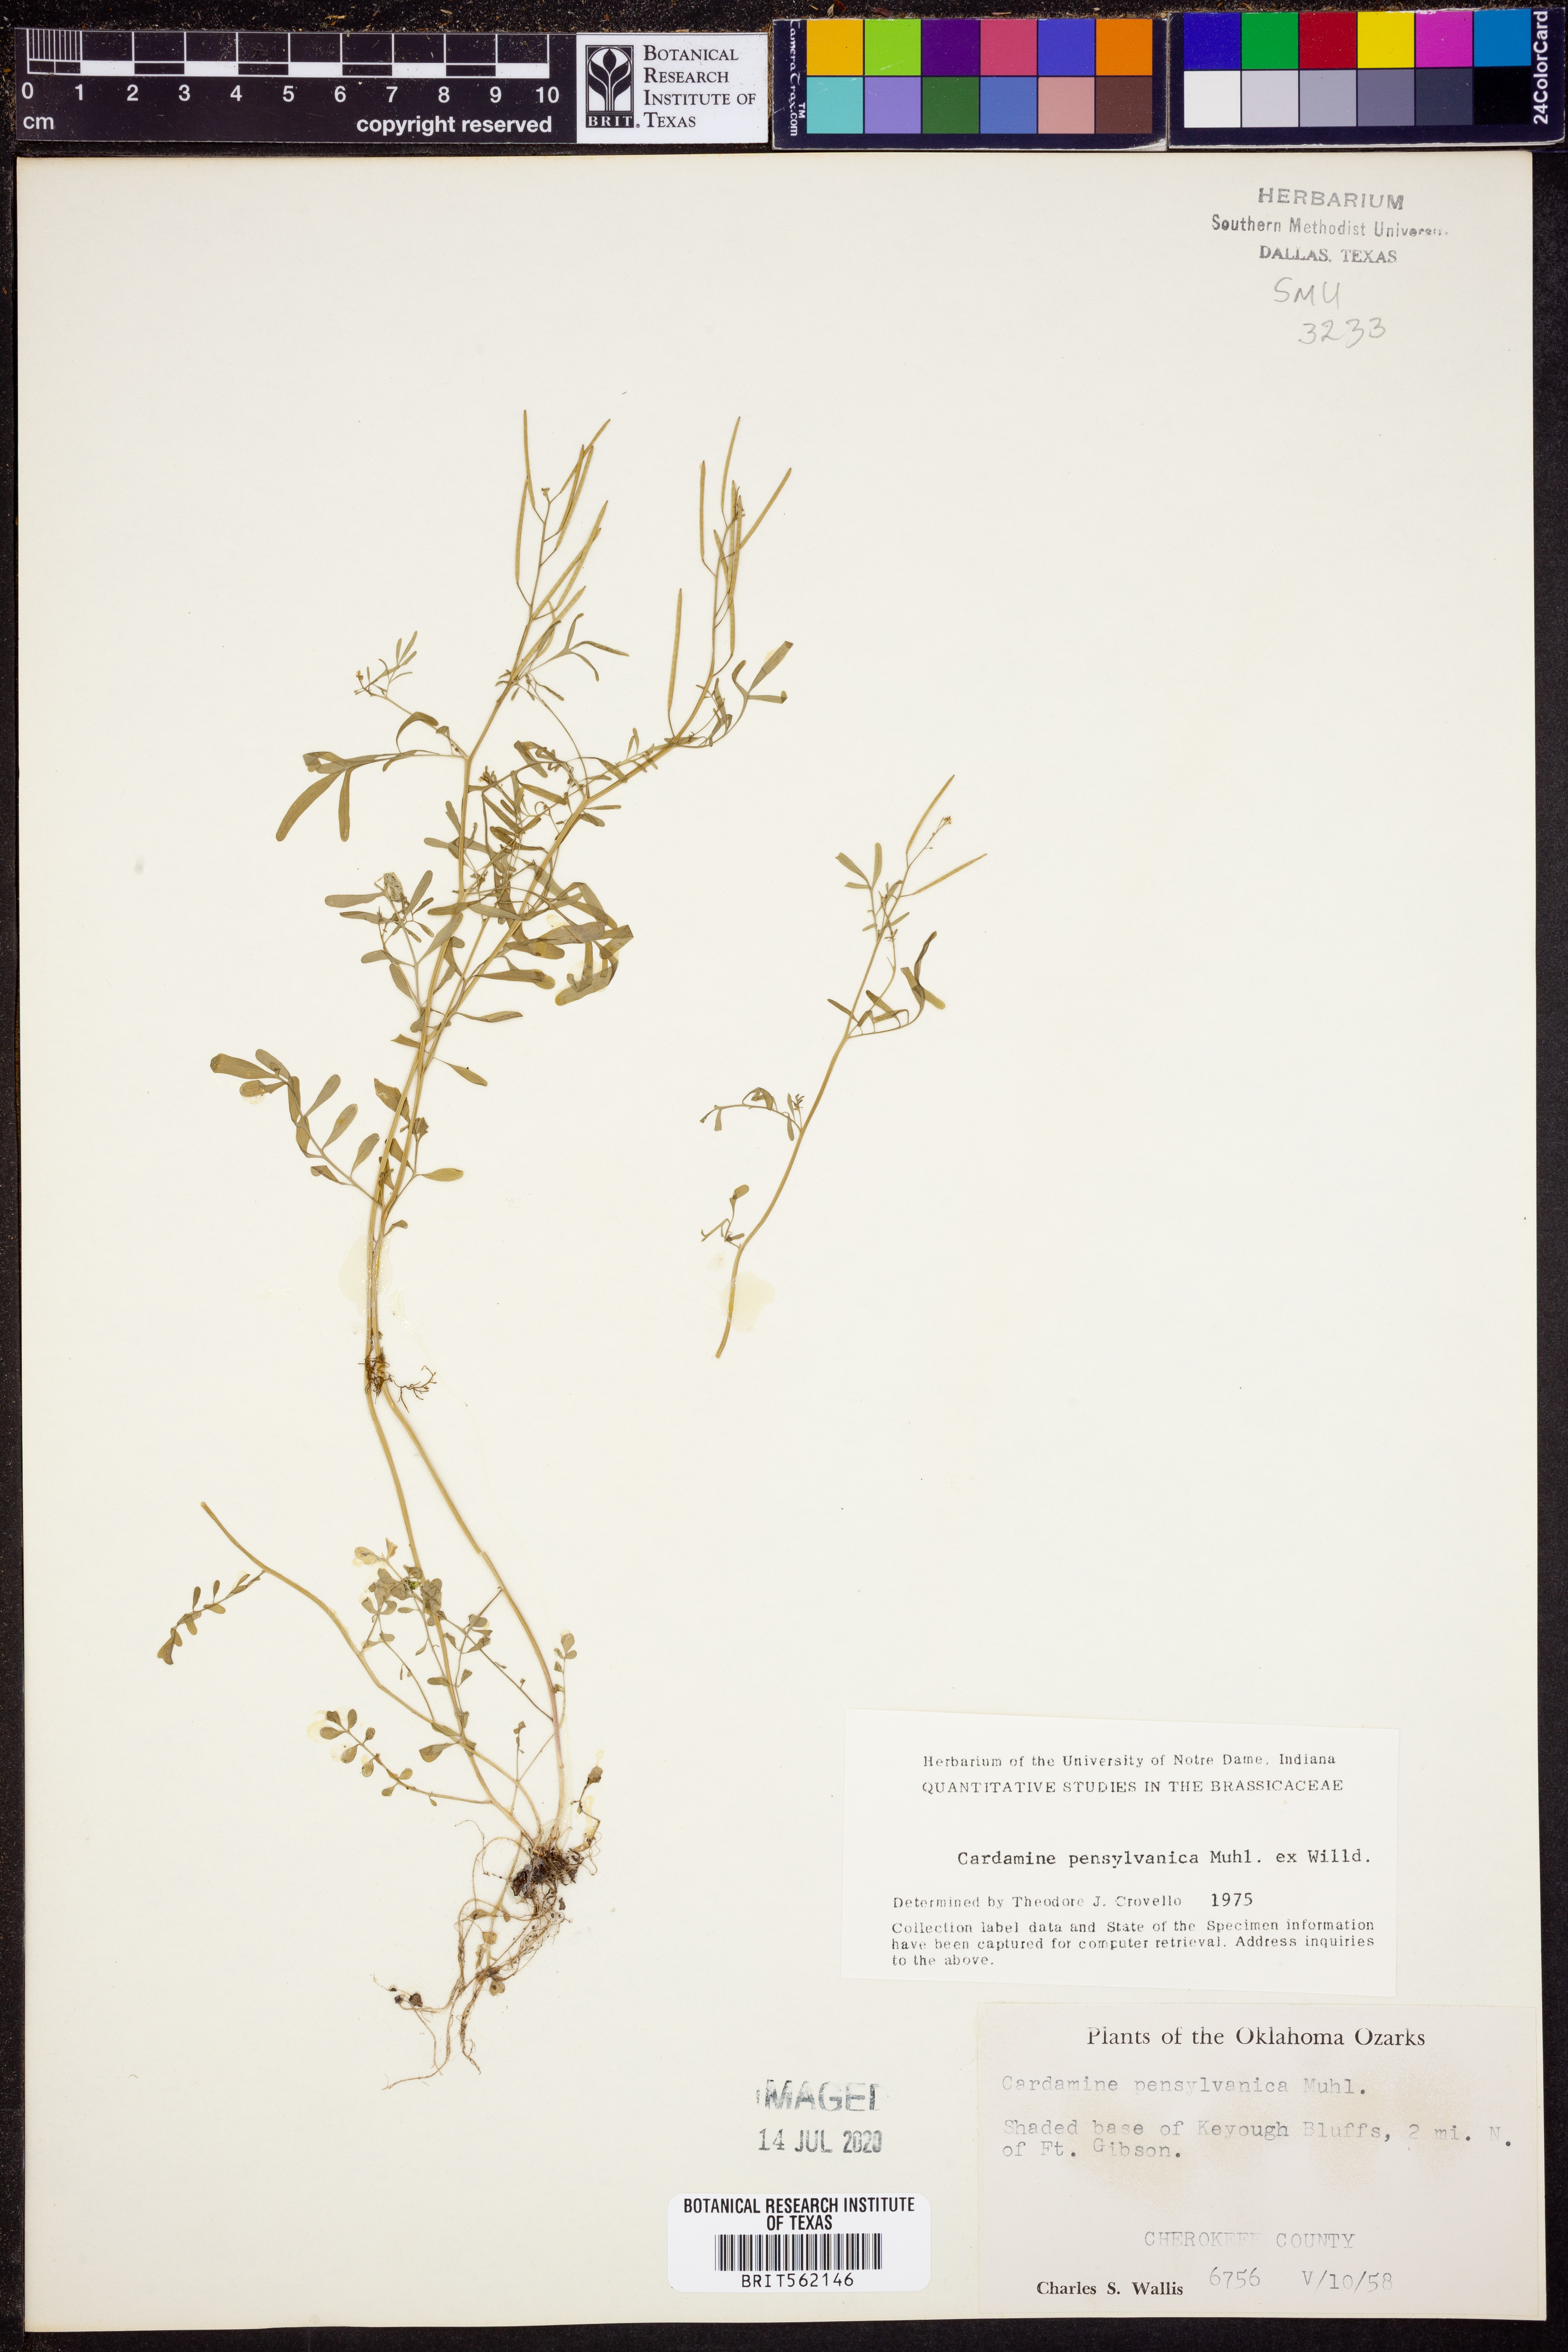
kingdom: Plantae
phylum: Tracheophyta
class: Magnoliopsida
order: Brassicales
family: Brassicaceae
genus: Cardamine
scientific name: Cardamine pensylvanica
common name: Pennsylvania bittercress
